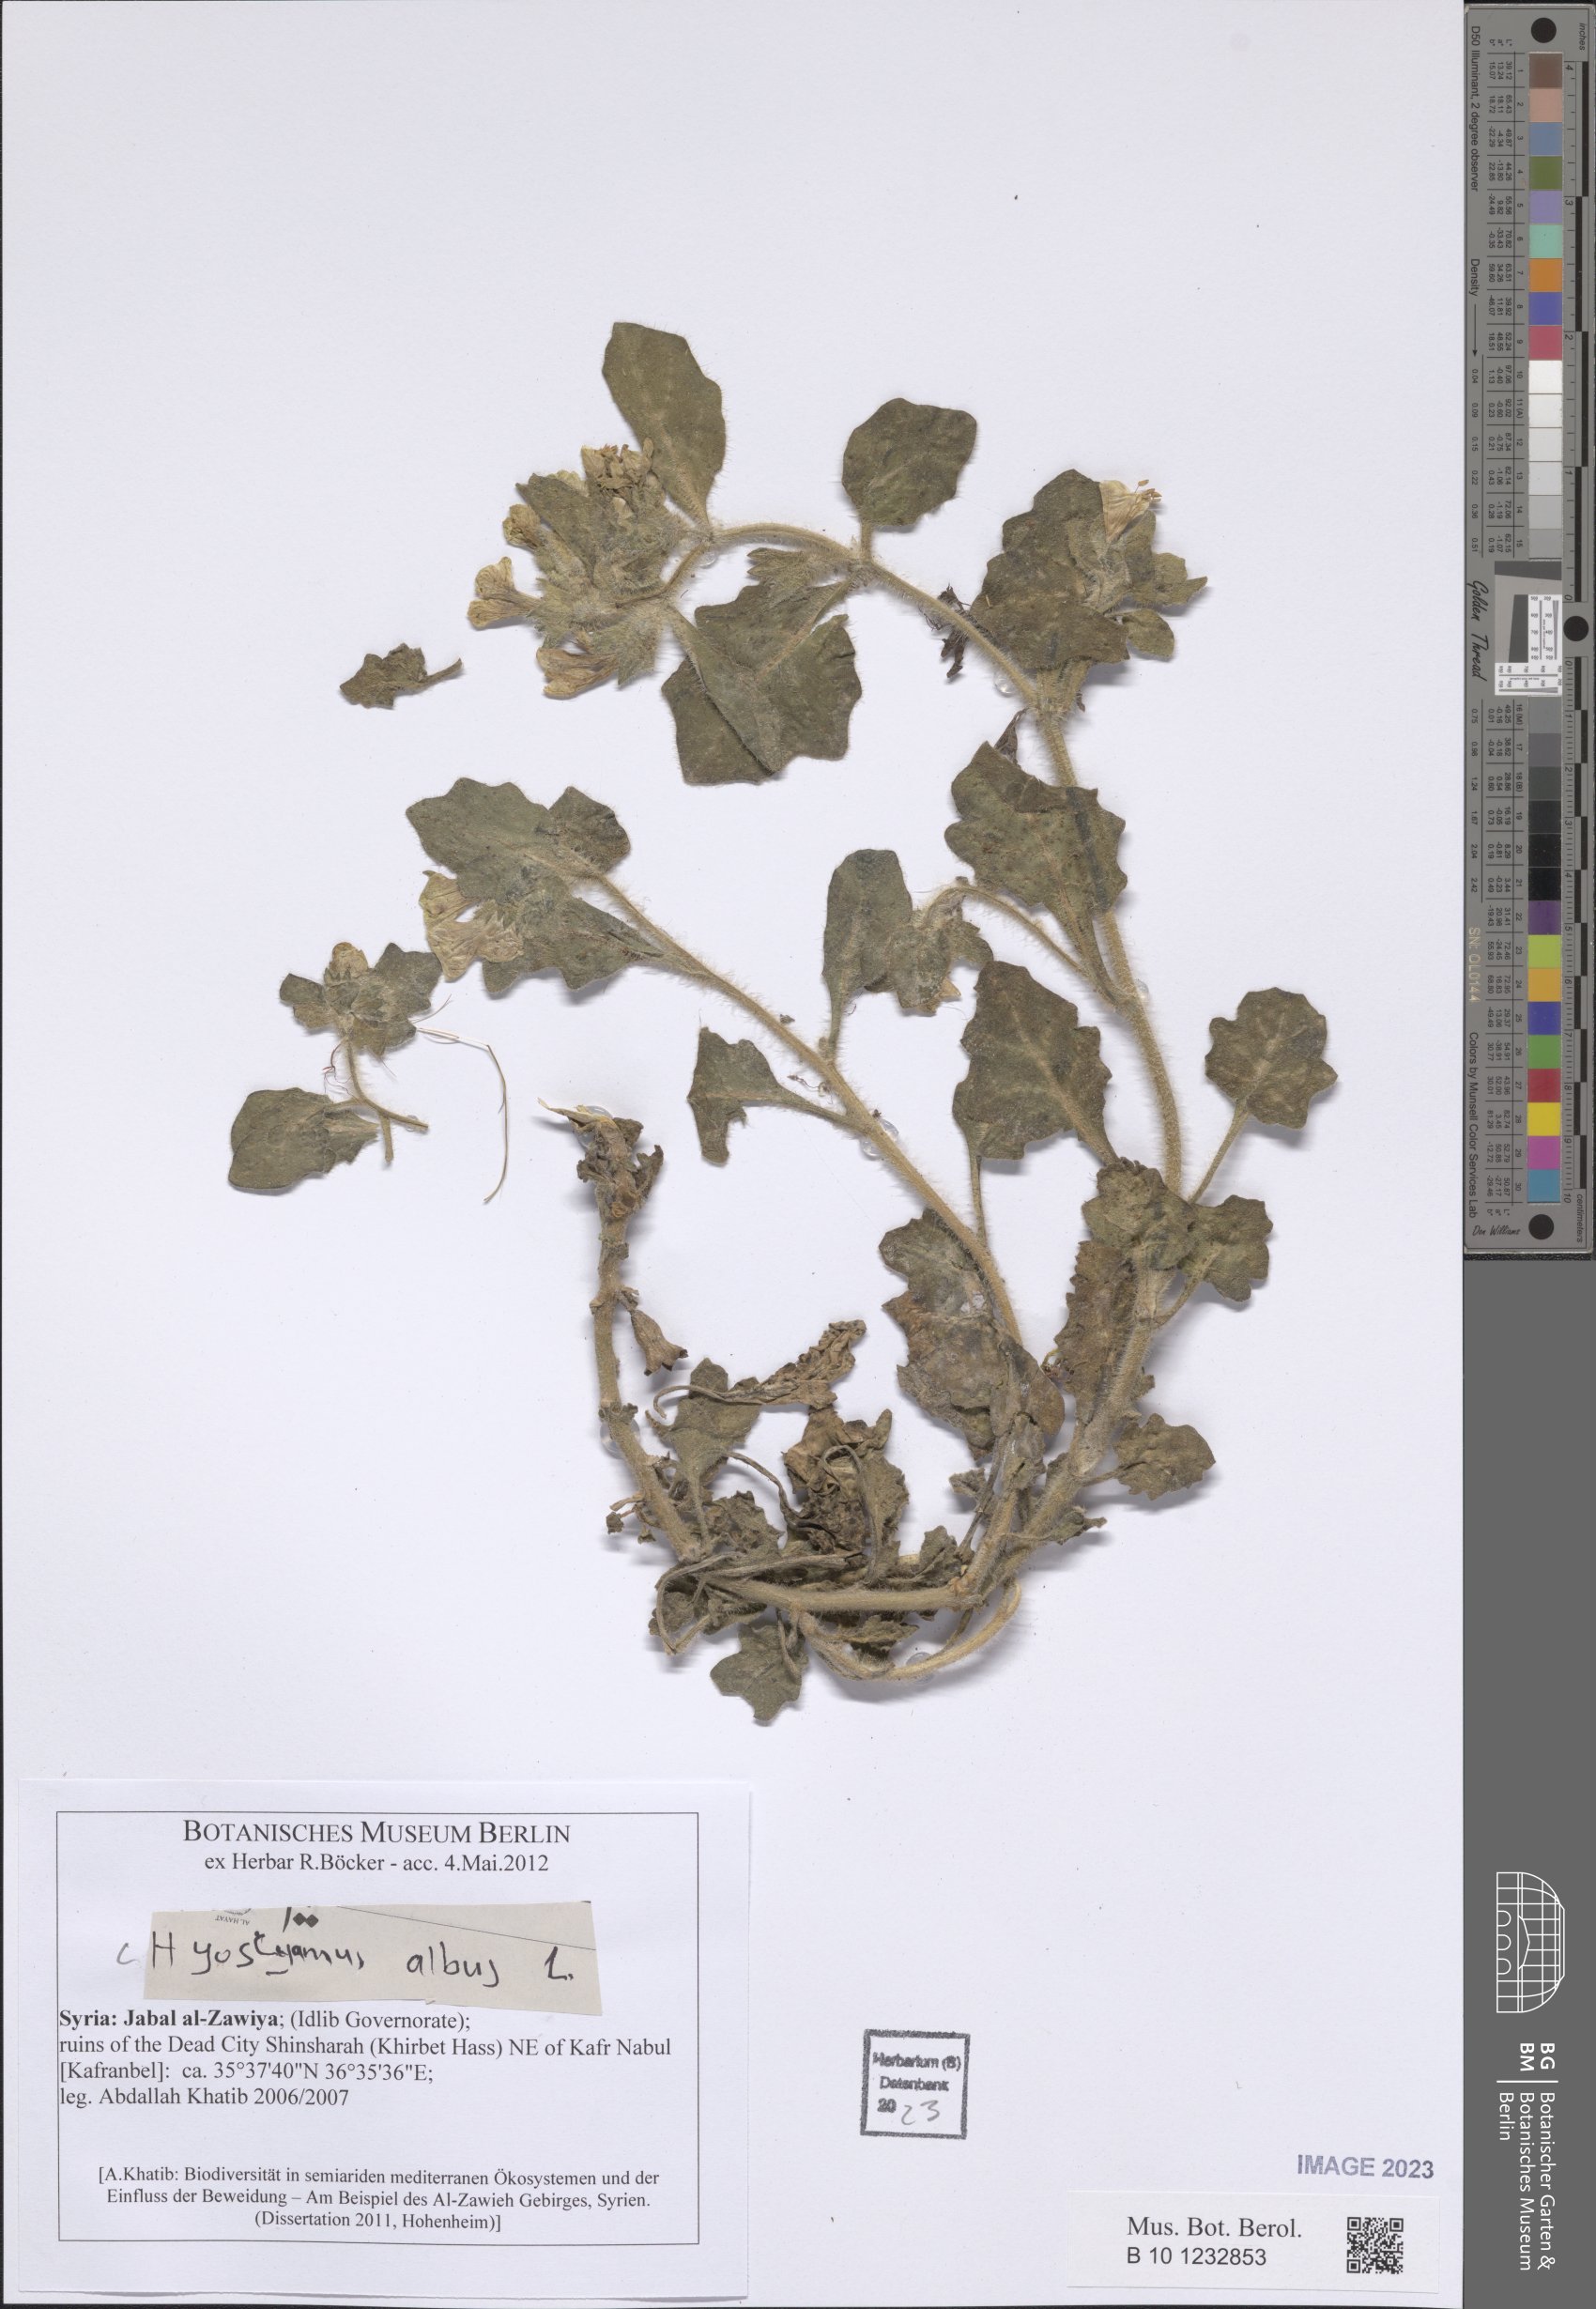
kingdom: Plantae
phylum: Tracheophyta
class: Magnoliopsida
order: Solanales
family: Solanaceae
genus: Hyoscyamus
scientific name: Hyoscyamus albus
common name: White henbane
